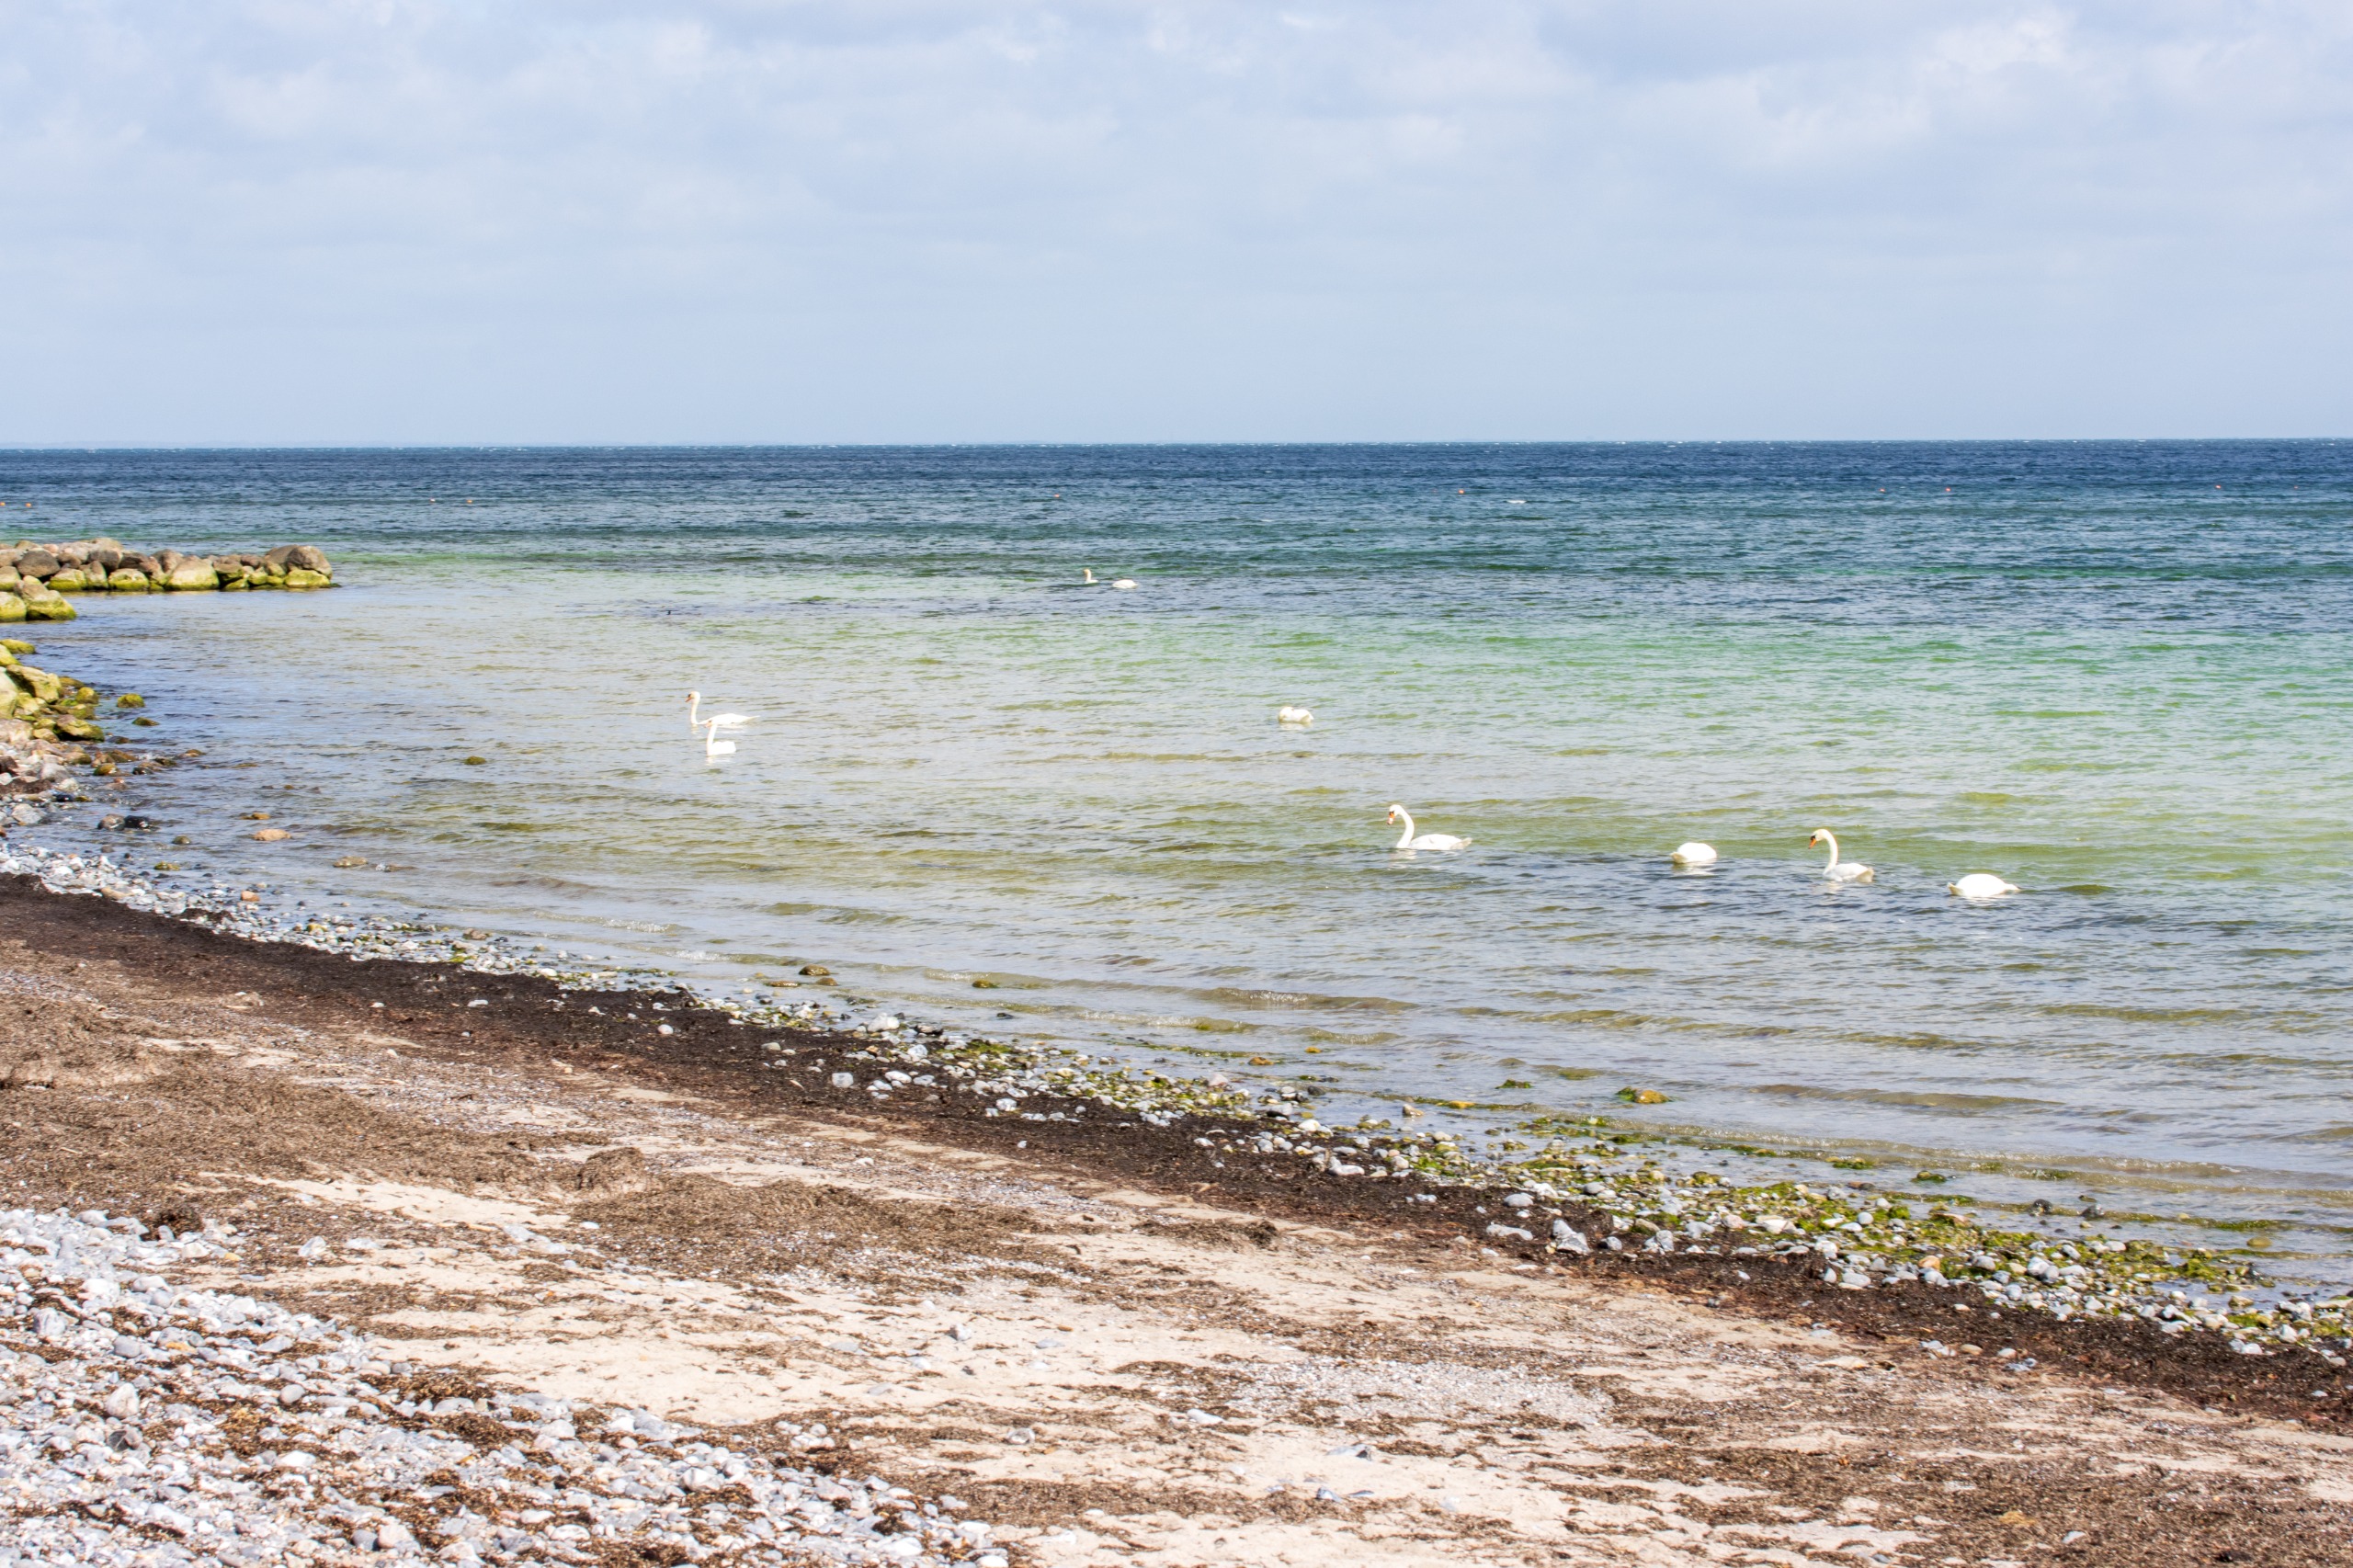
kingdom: Animalia
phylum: Chordata
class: Aves
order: Anseriformes
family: Anatidae
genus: Cygnus
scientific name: Cygnus olor
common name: Knopsvane
